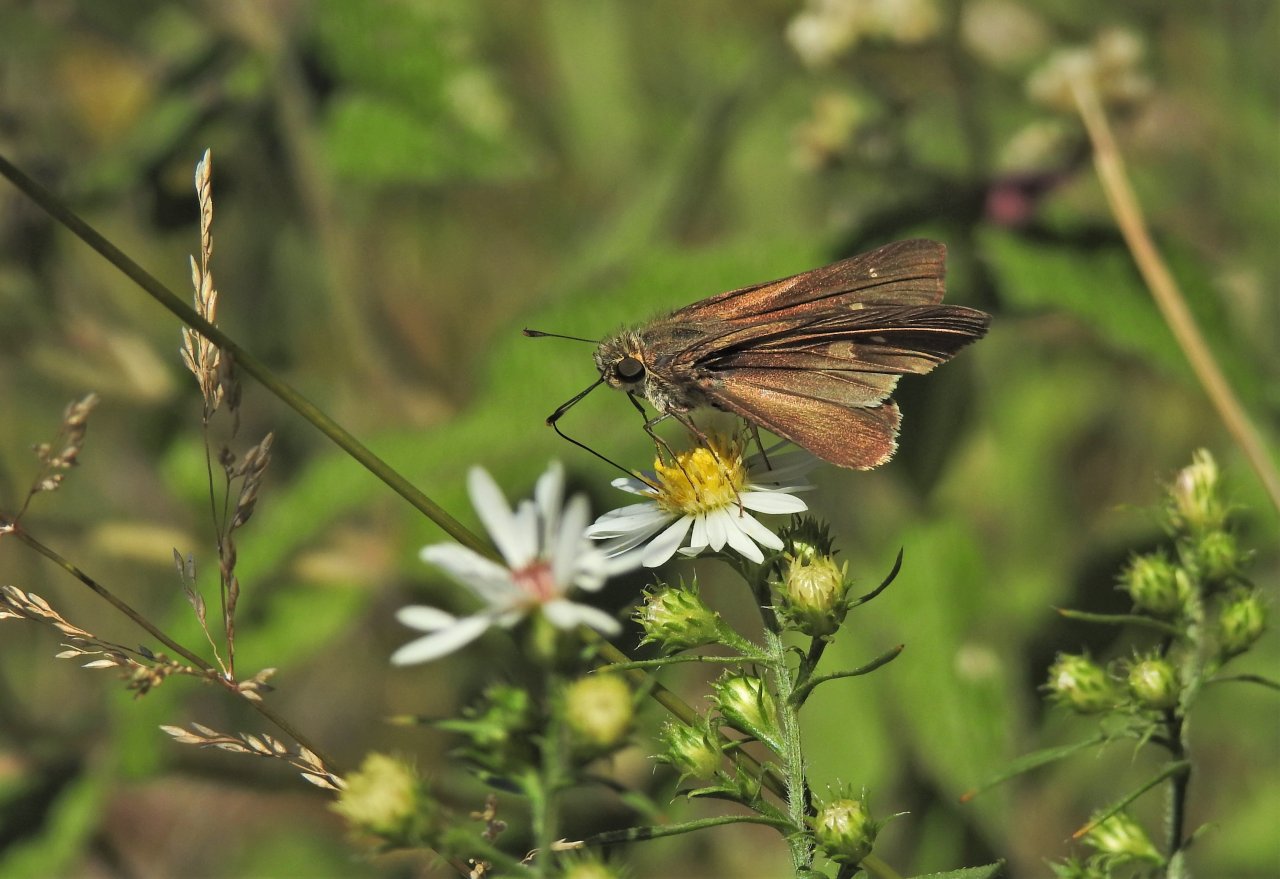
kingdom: Animalia
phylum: Arthropoda
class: Insecta
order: Lepidoptera
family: Hesperiidae
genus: Panoquina
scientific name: Panoquina ocola
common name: Ocola Skipper
